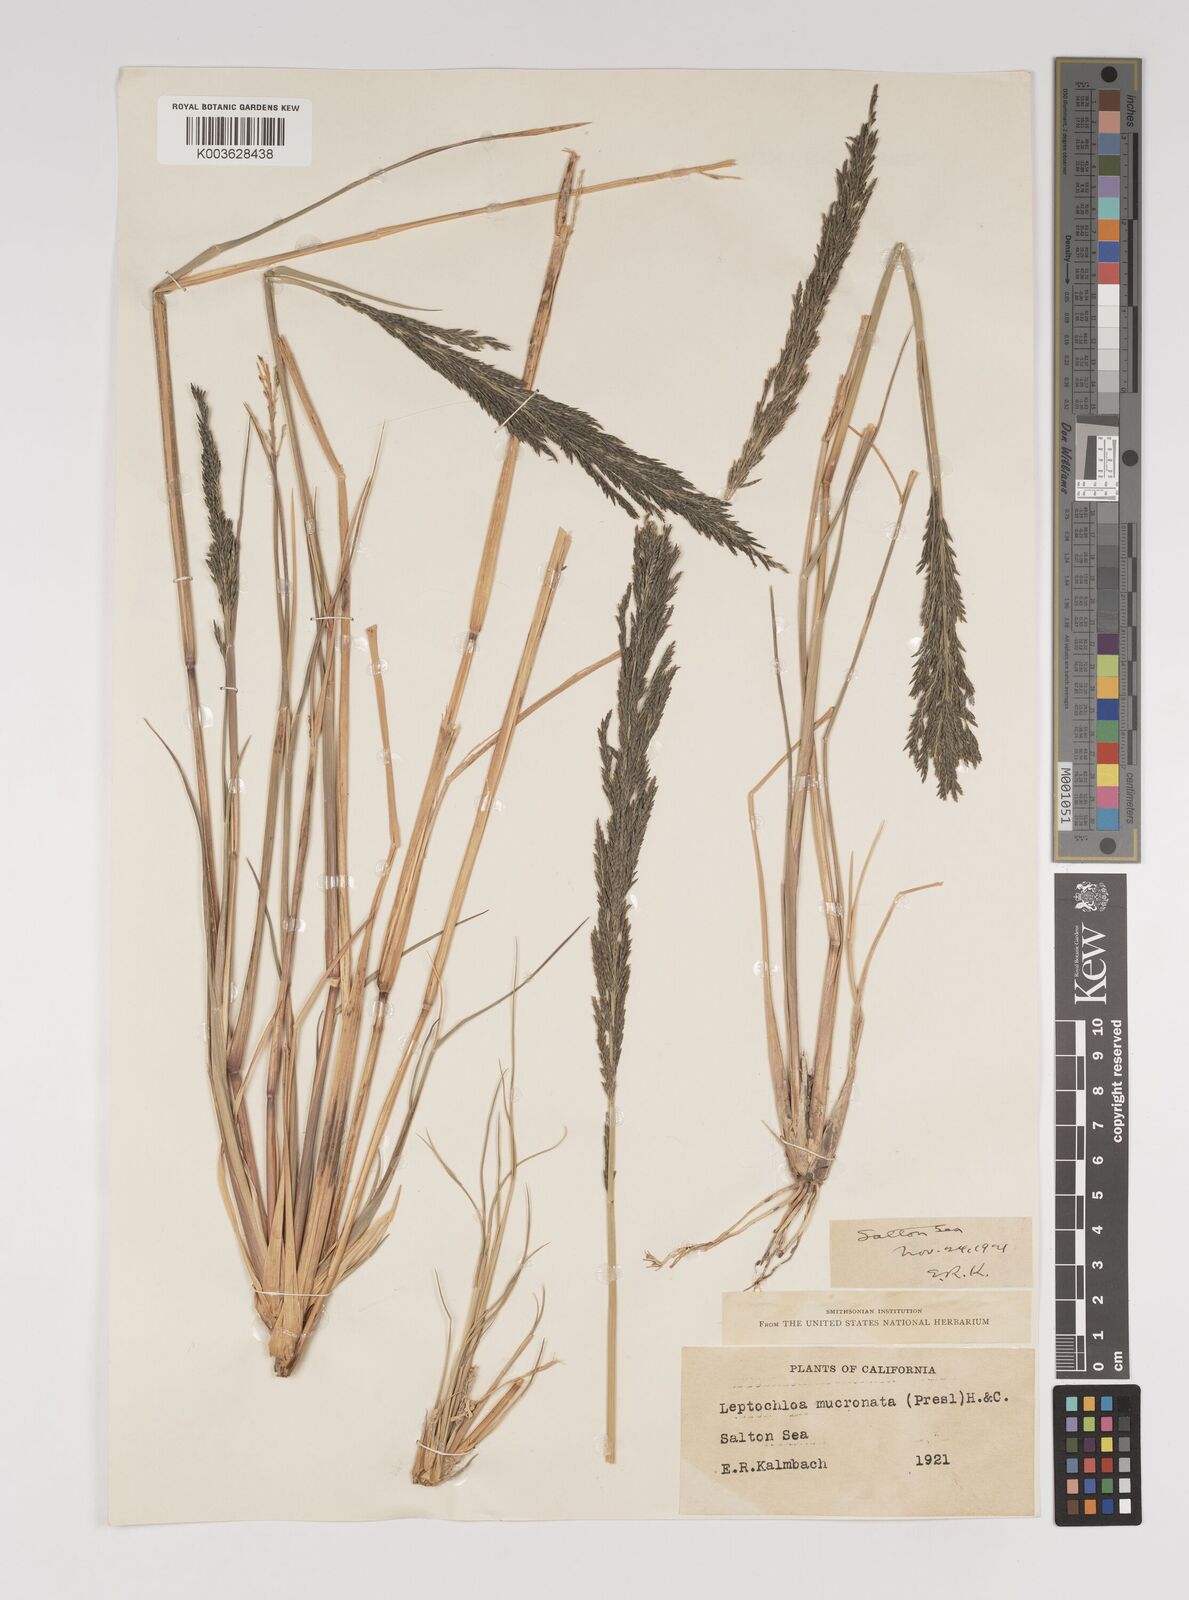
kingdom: Plantae
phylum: Tracheophyta
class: Liliopsida
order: Poales
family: Poaceae
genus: Diplachne
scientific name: Diplachne fusca
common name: Brown beetle grass
